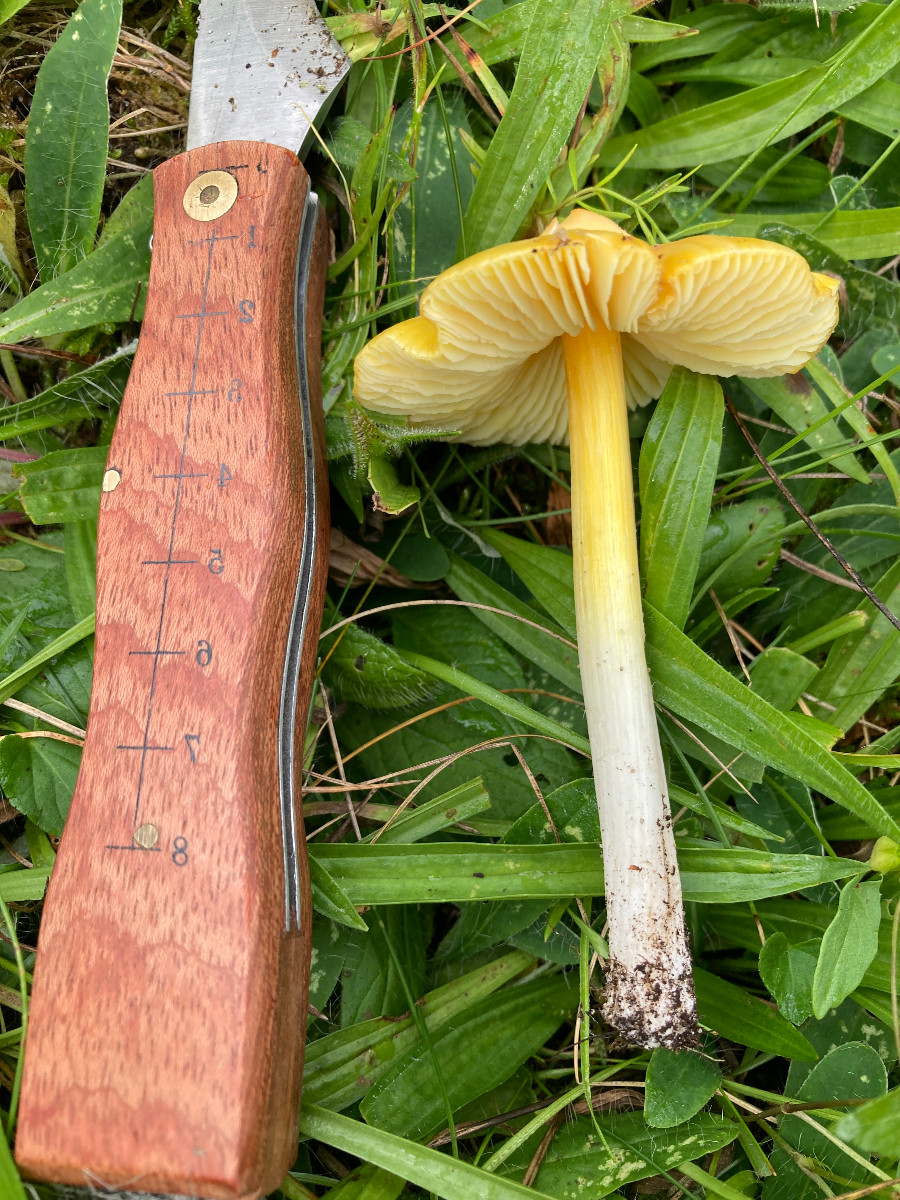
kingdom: Fungi
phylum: Basidiomycota
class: Agaricomycetes
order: Agaricales
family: Hygrophoraceae
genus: Hygrocybe
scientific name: Hygrocybe acutoconica
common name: spidspuklet vokshat
